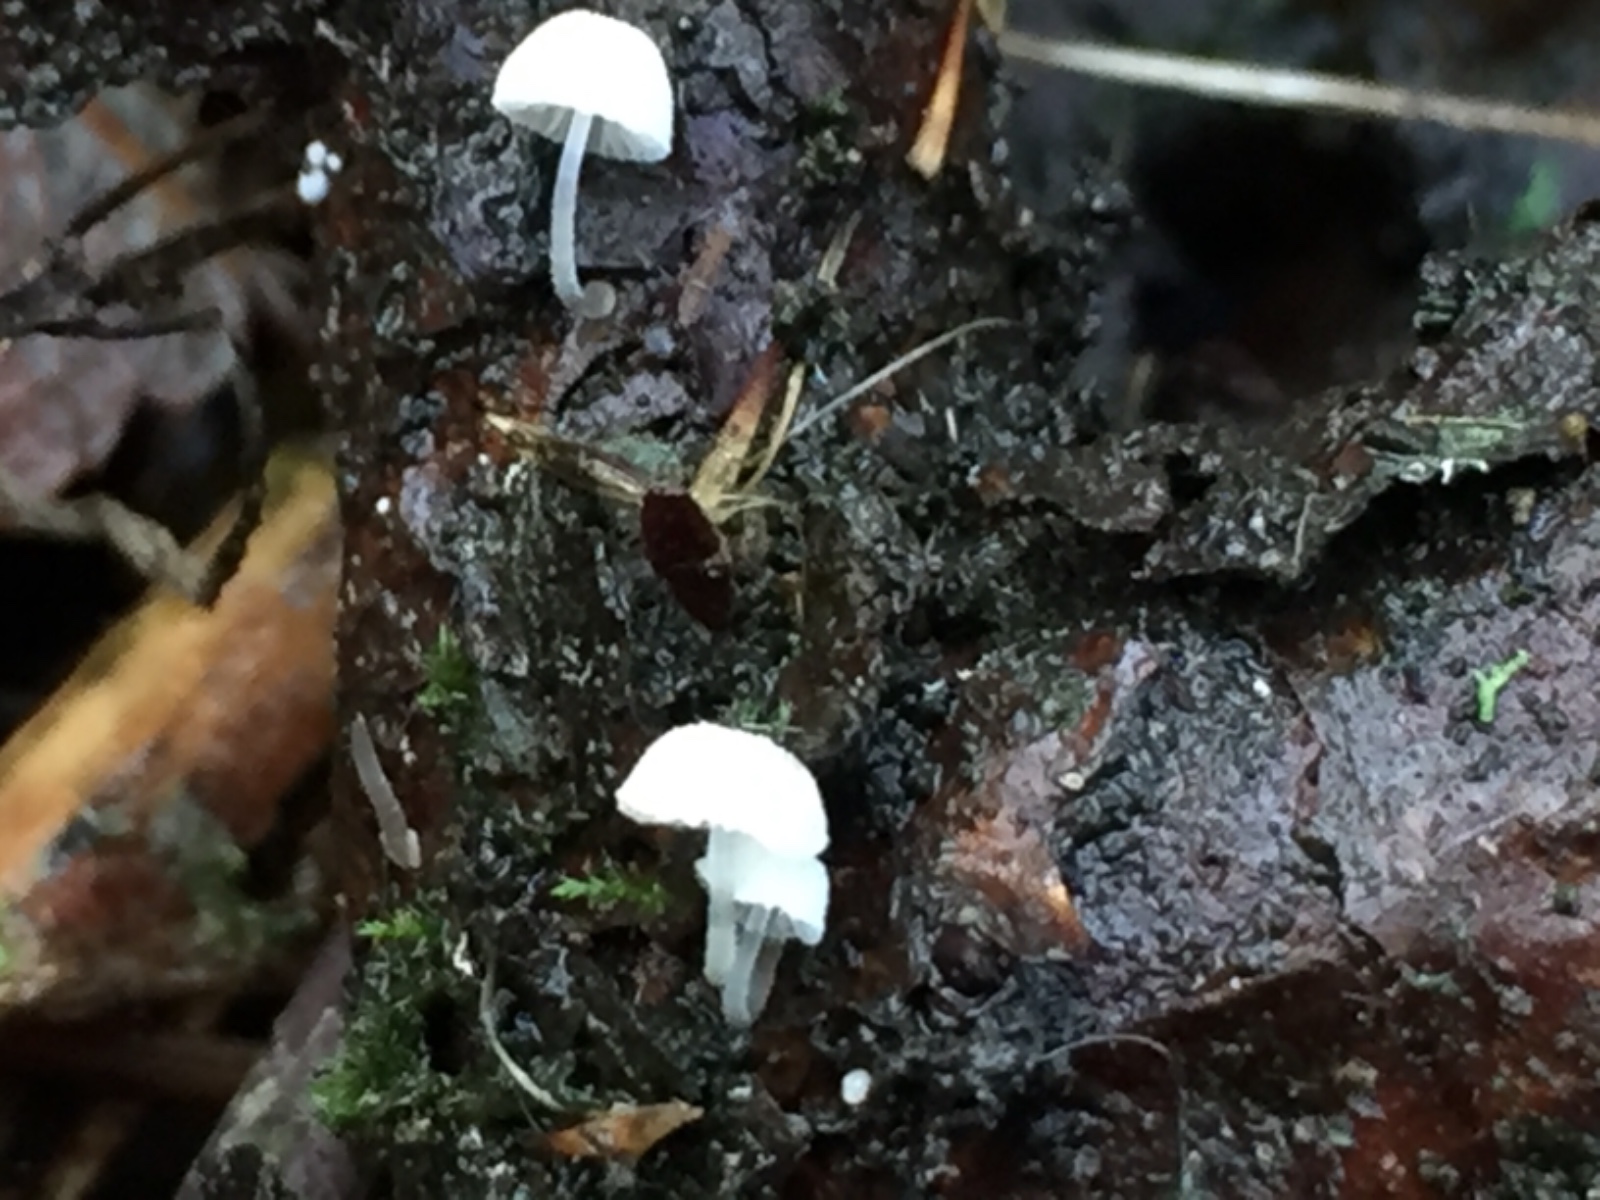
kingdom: Fungi
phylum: Basidiomycota
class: Agaricomycetes
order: Agaricales
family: Mycenaceae
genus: Mycena
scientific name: Mycena
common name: huesvamp
